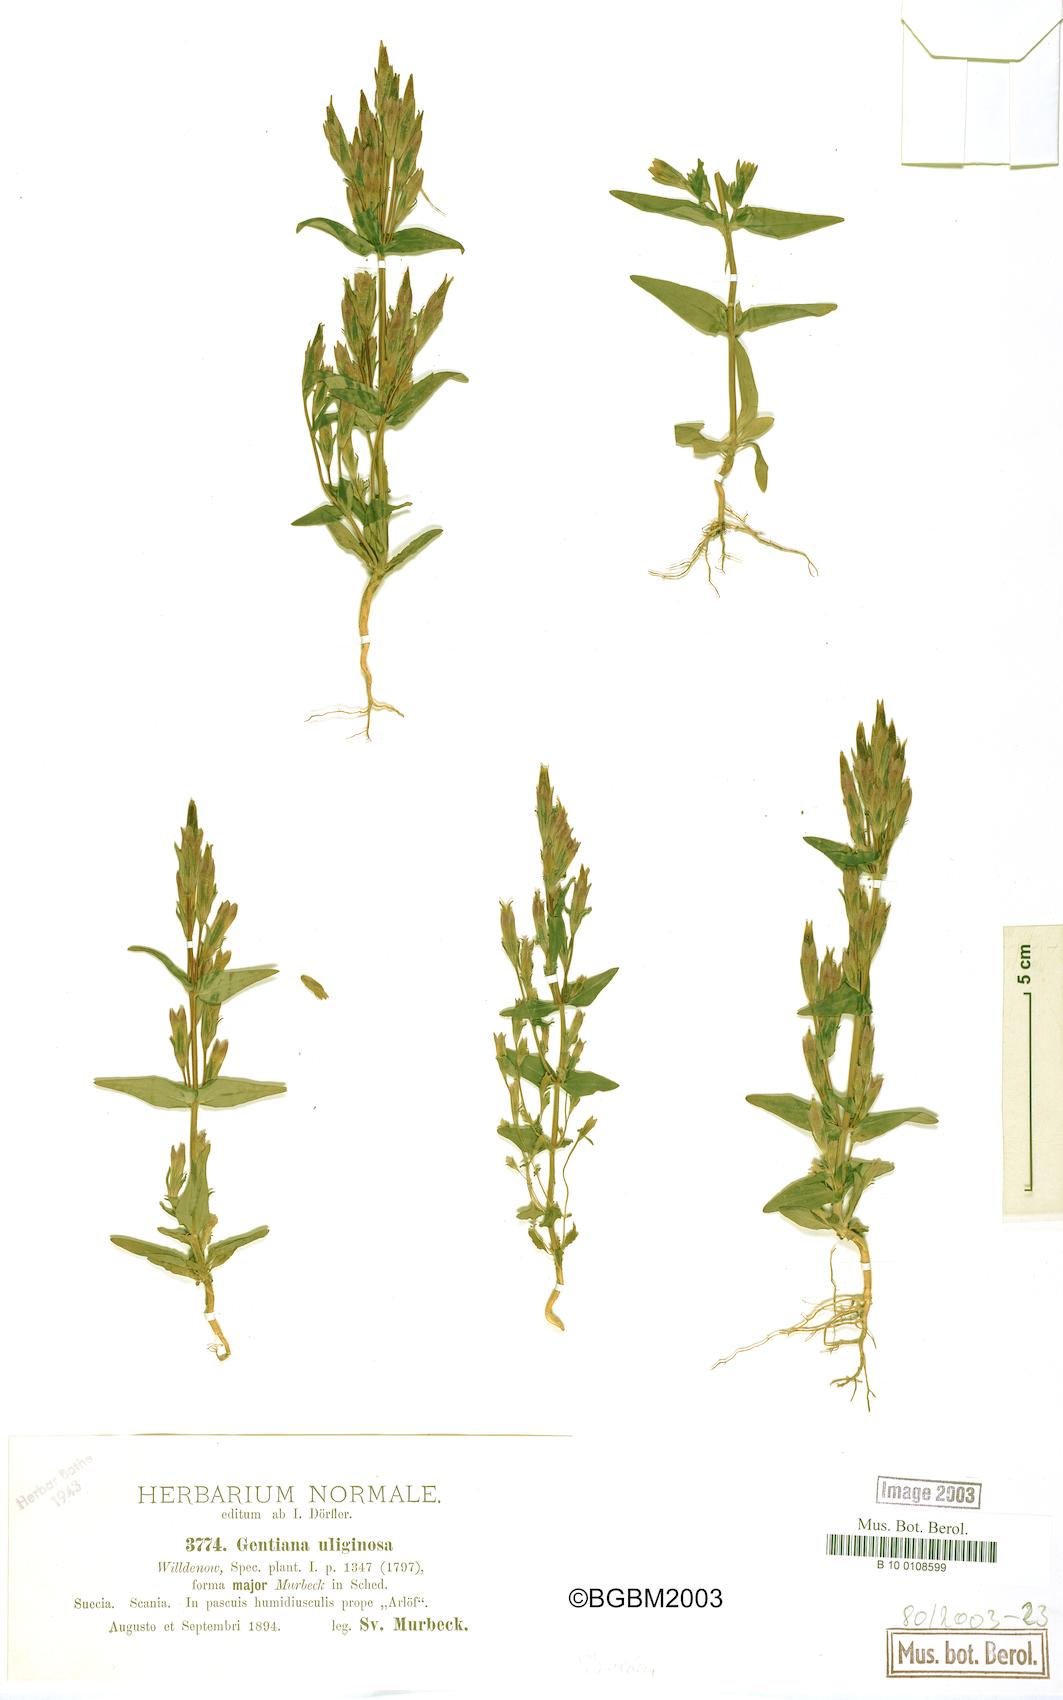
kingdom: Plantae
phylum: Tracheophyta
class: Magnoliopsida
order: Gentianales
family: Gentianaceae
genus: Gentianella
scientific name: Gentianella uliginosa
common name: Dune gentian
